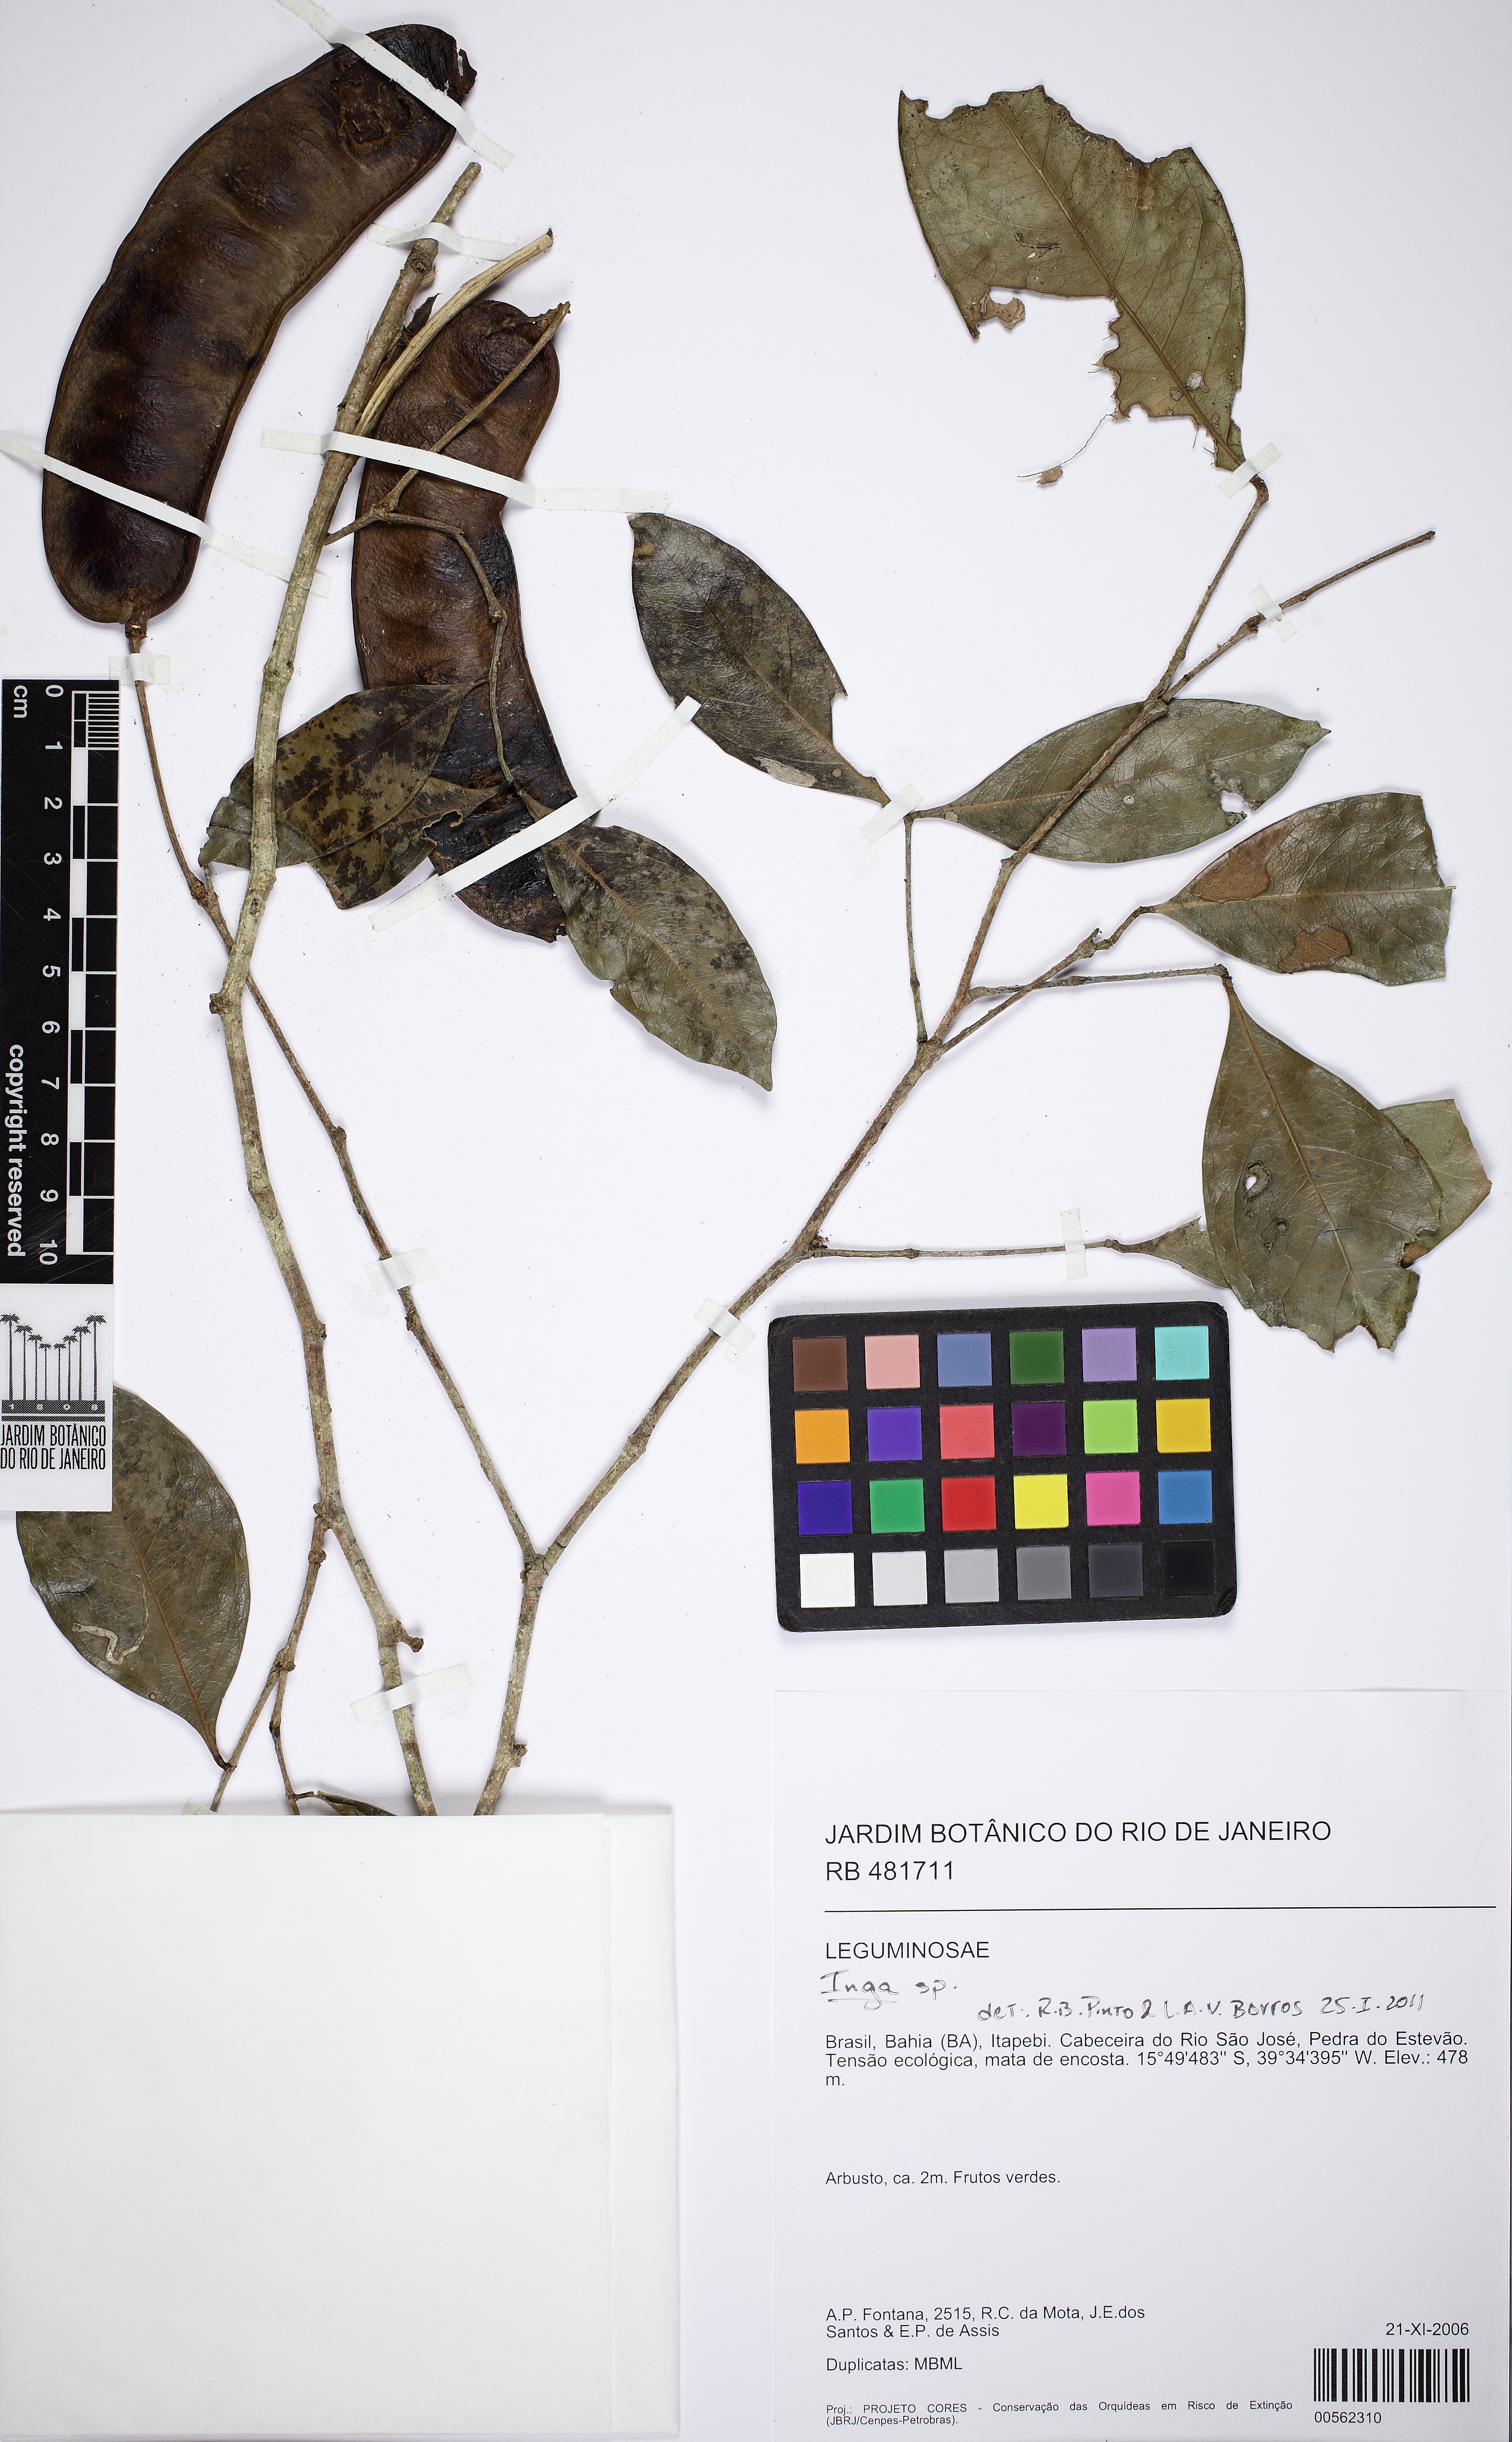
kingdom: Plantae
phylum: Tracheophyta
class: Magnoliopsida
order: Fabales
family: Fabaceae
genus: Inga
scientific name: Inga capitata
